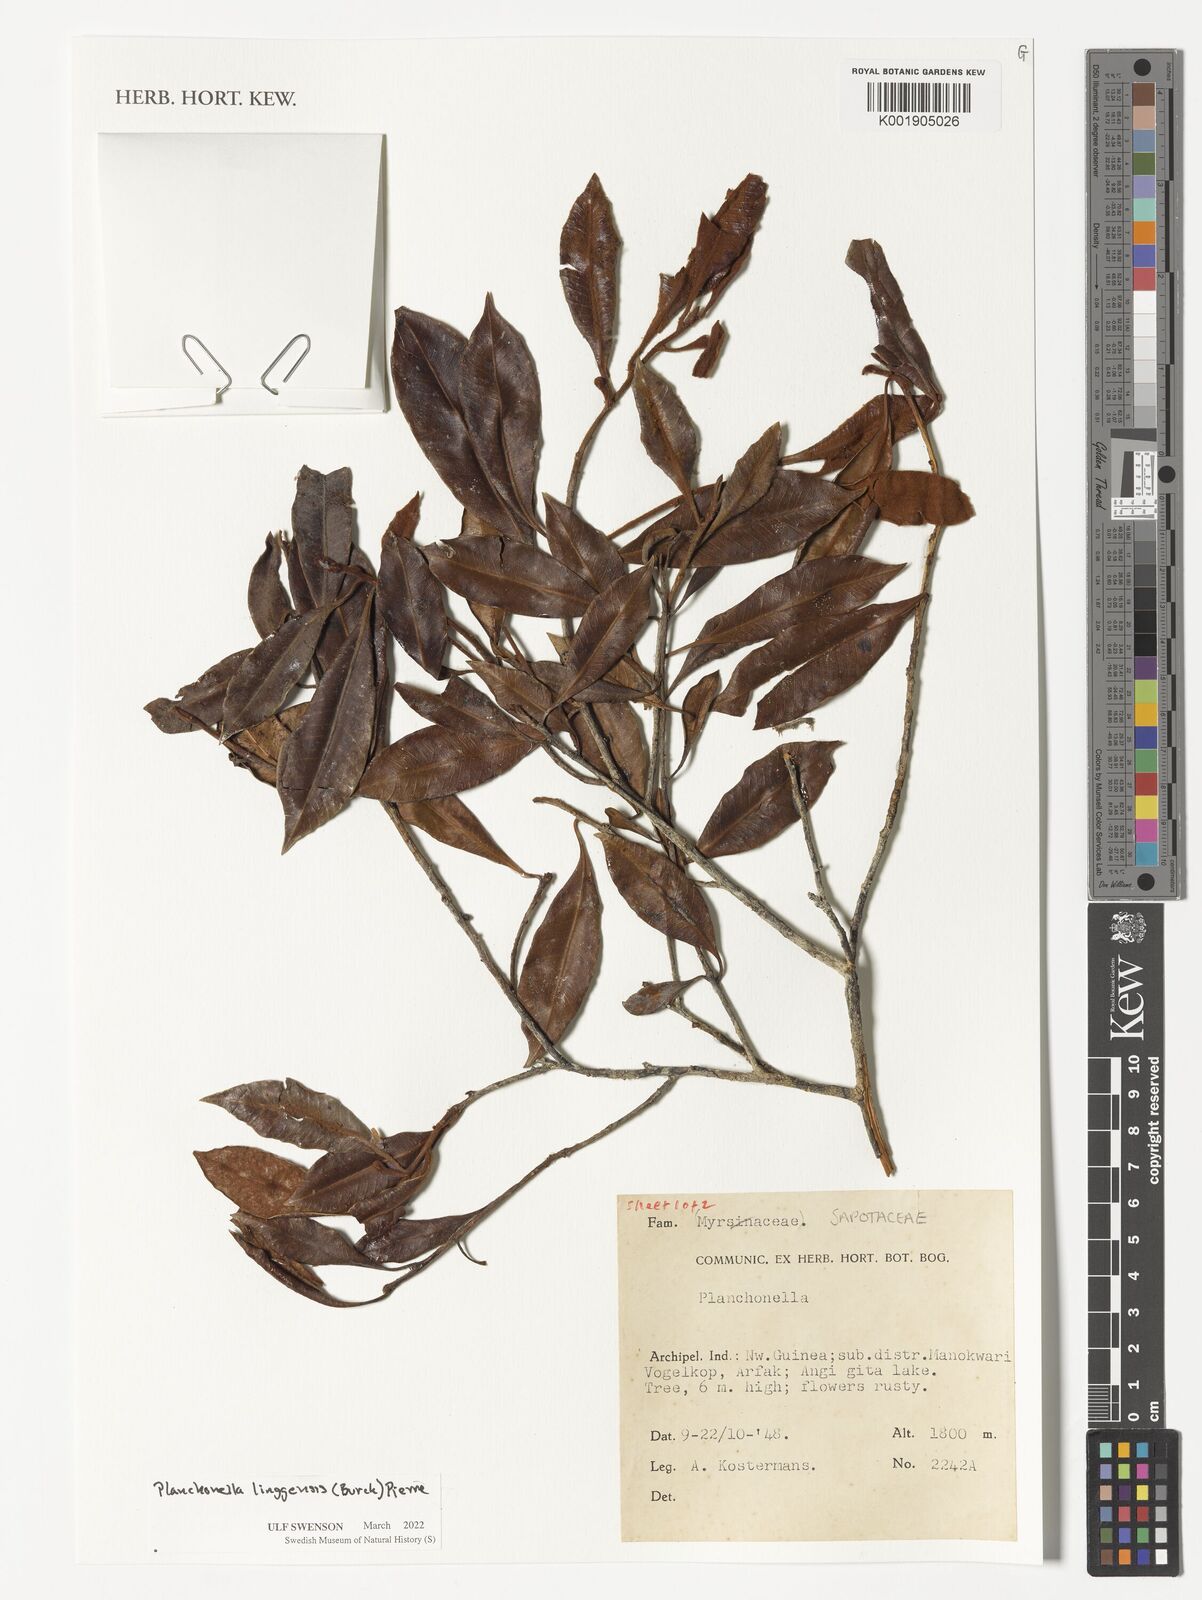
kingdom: Plantae
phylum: Tracheophyta
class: Magnoliopsida
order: Ericales
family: Sapotaceae
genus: Planchonella
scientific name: Planchonella chartacea
